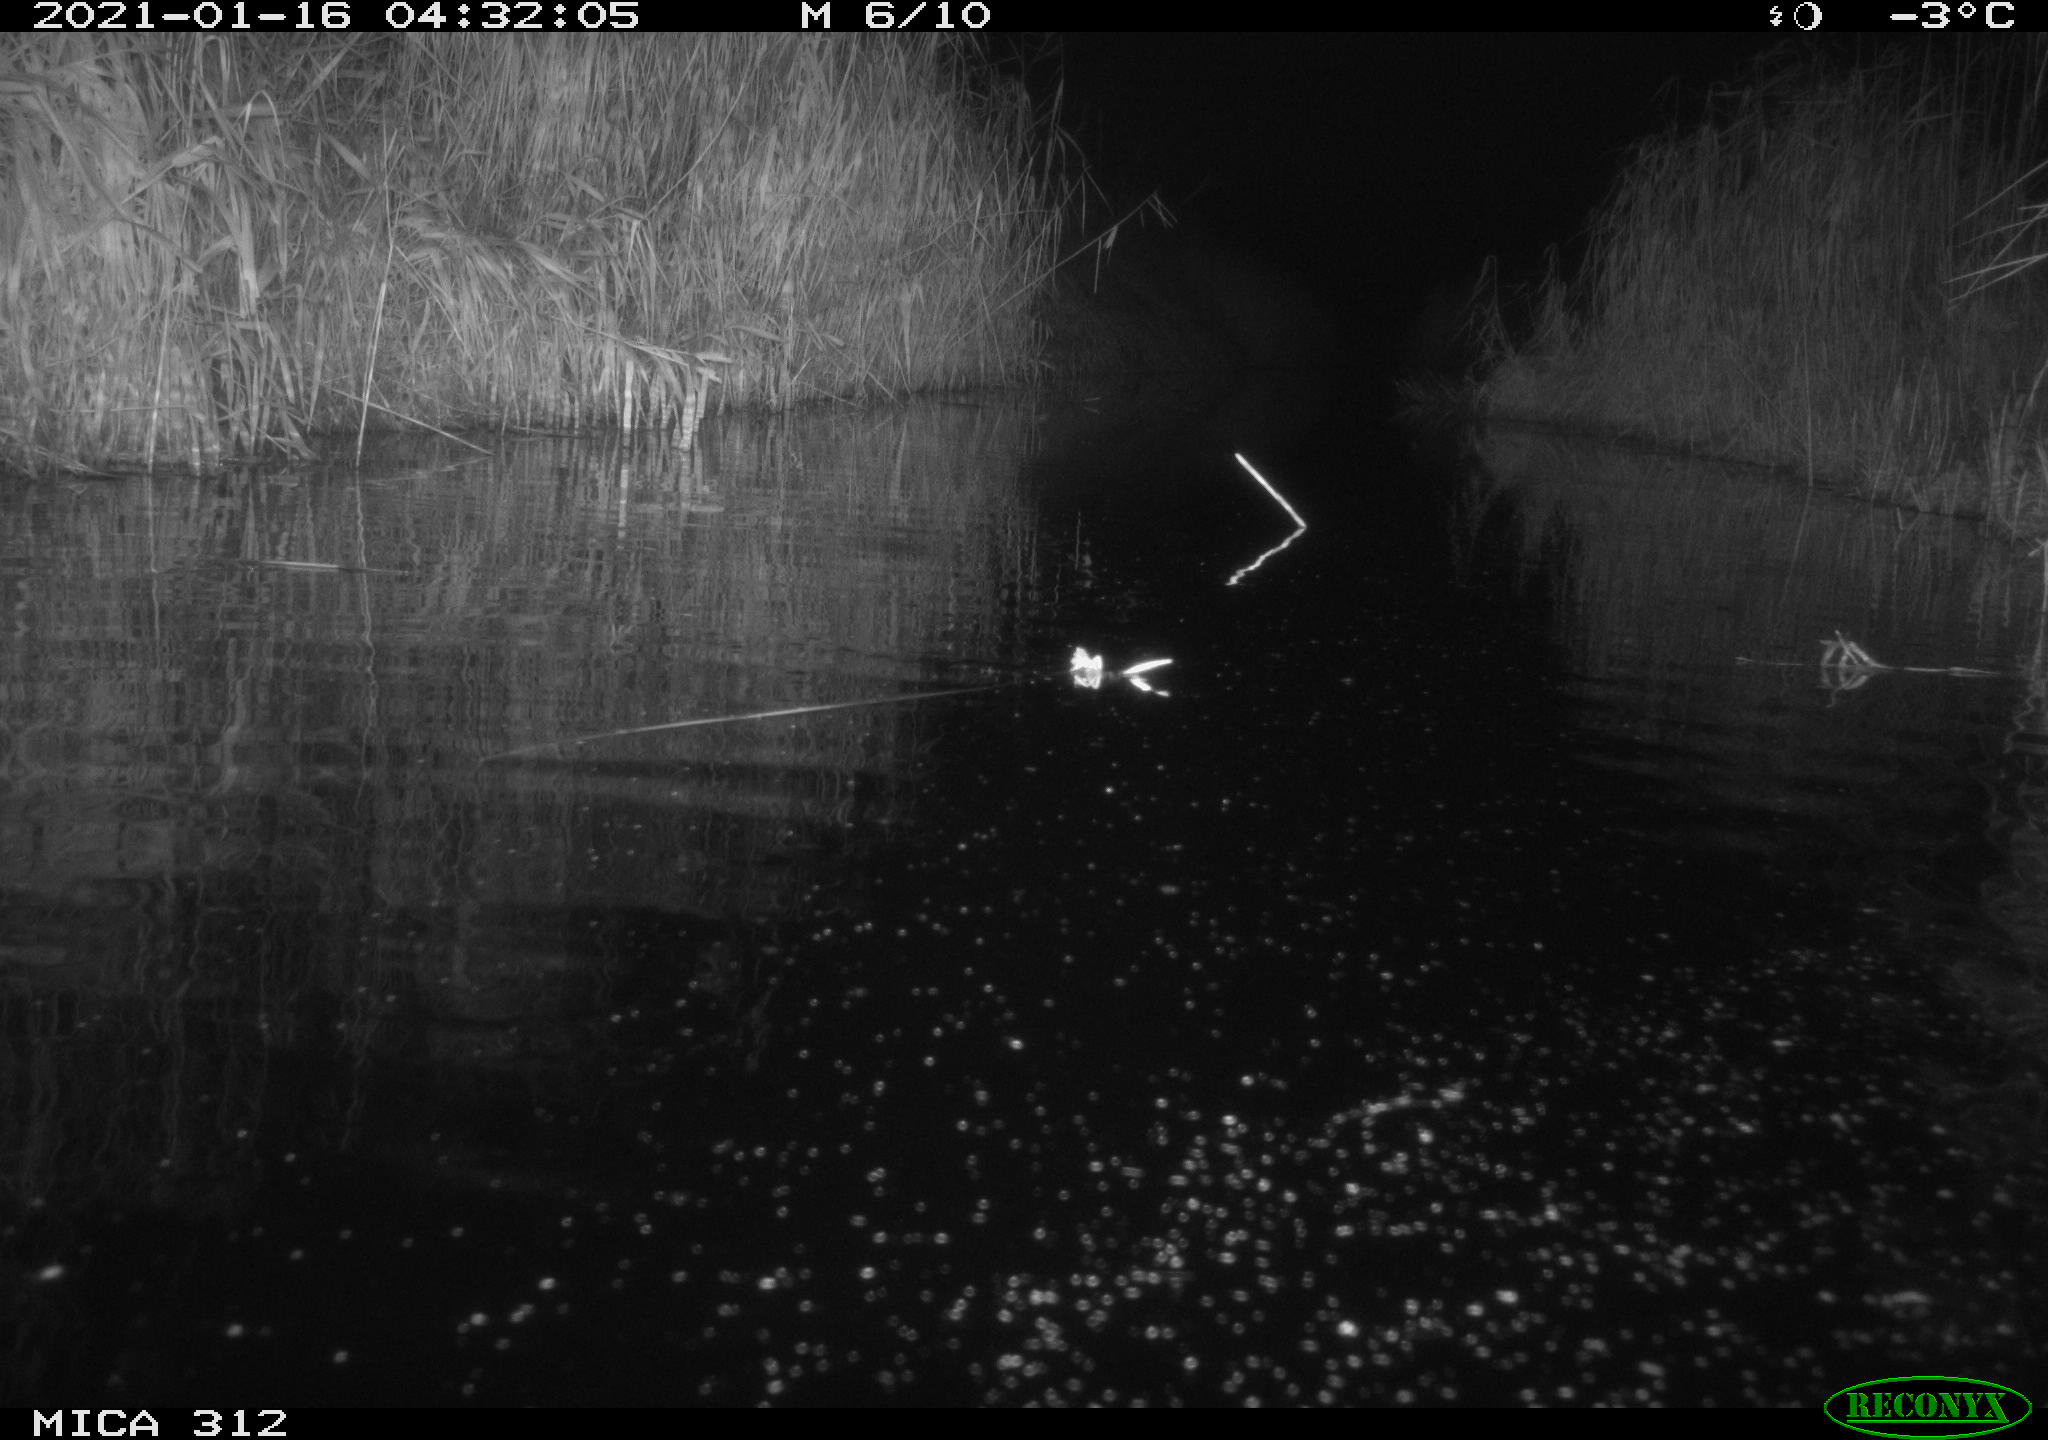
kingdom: Animalia
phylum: Chordata
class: Mammalia
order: Rodentia
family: Muridae
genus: Rattus
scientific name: Rattus norvegicus
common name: Brown rat
